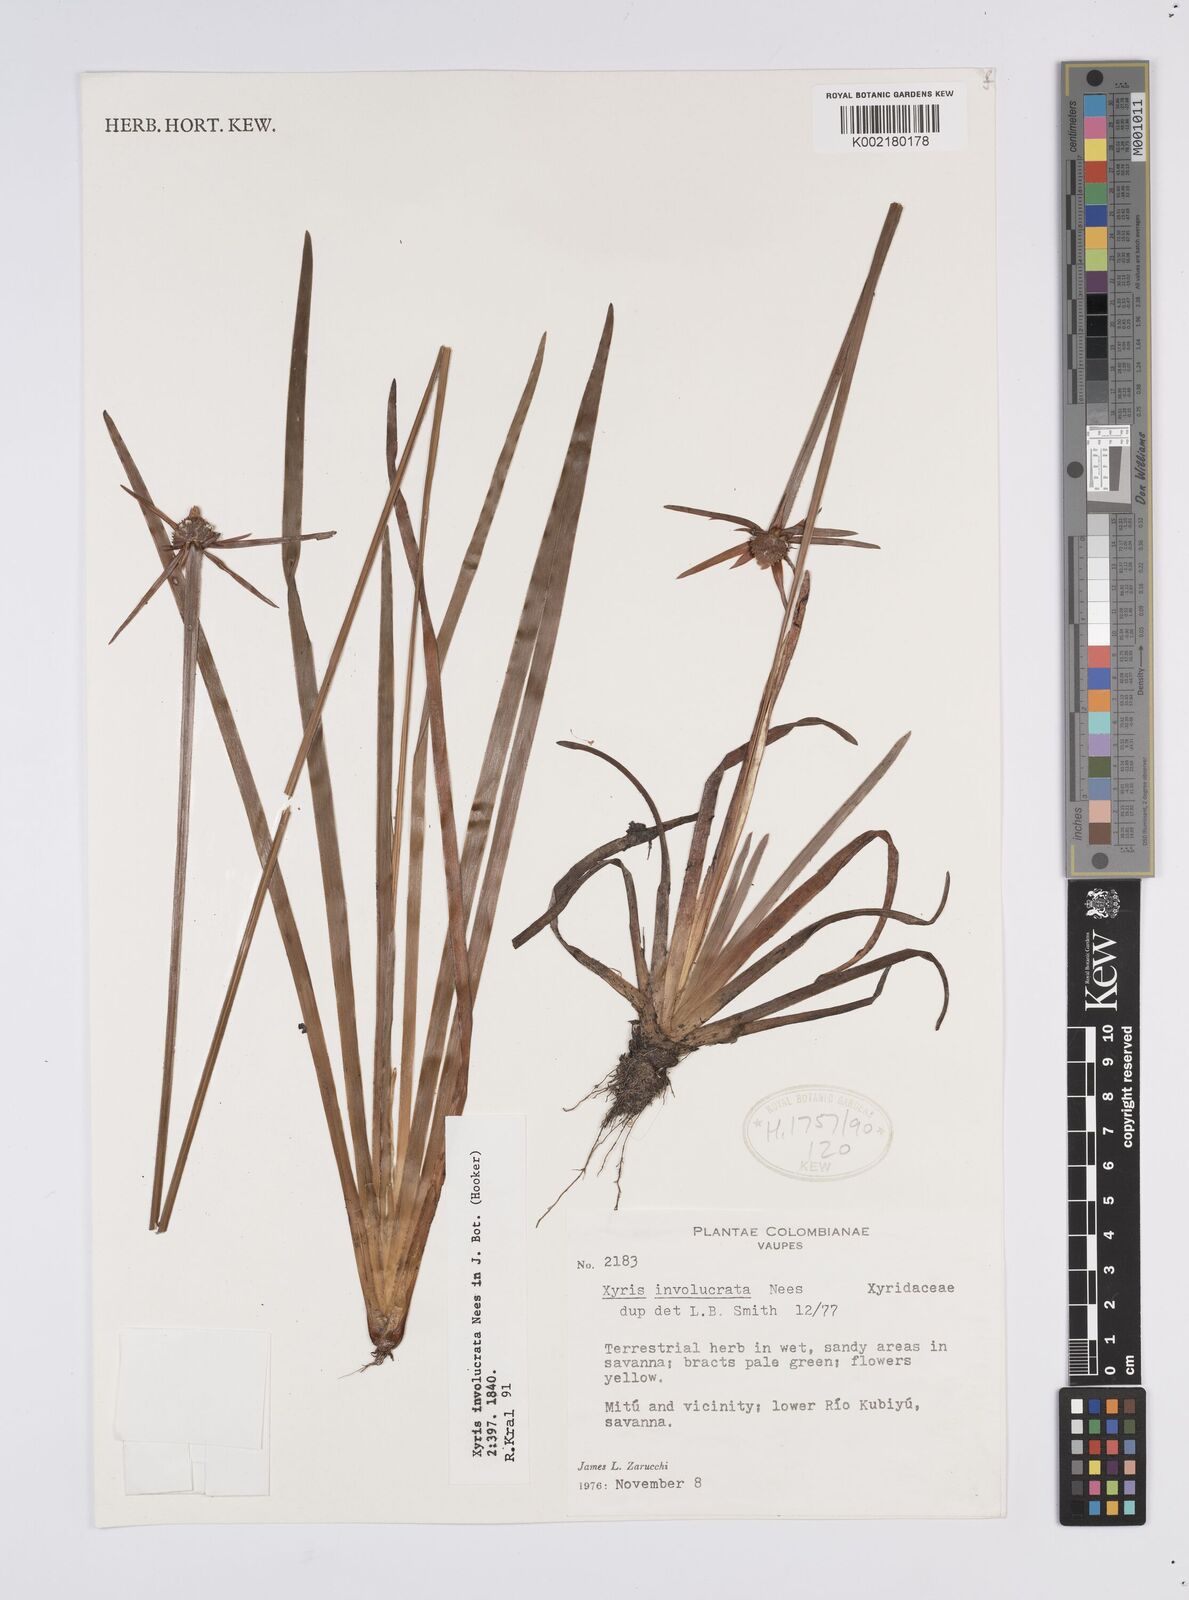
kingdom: Plantae
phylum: Tracheophyta
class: Liliopsida
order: Poales
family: Xyridaceae
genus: Xyris
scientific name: Xyris involucrata
